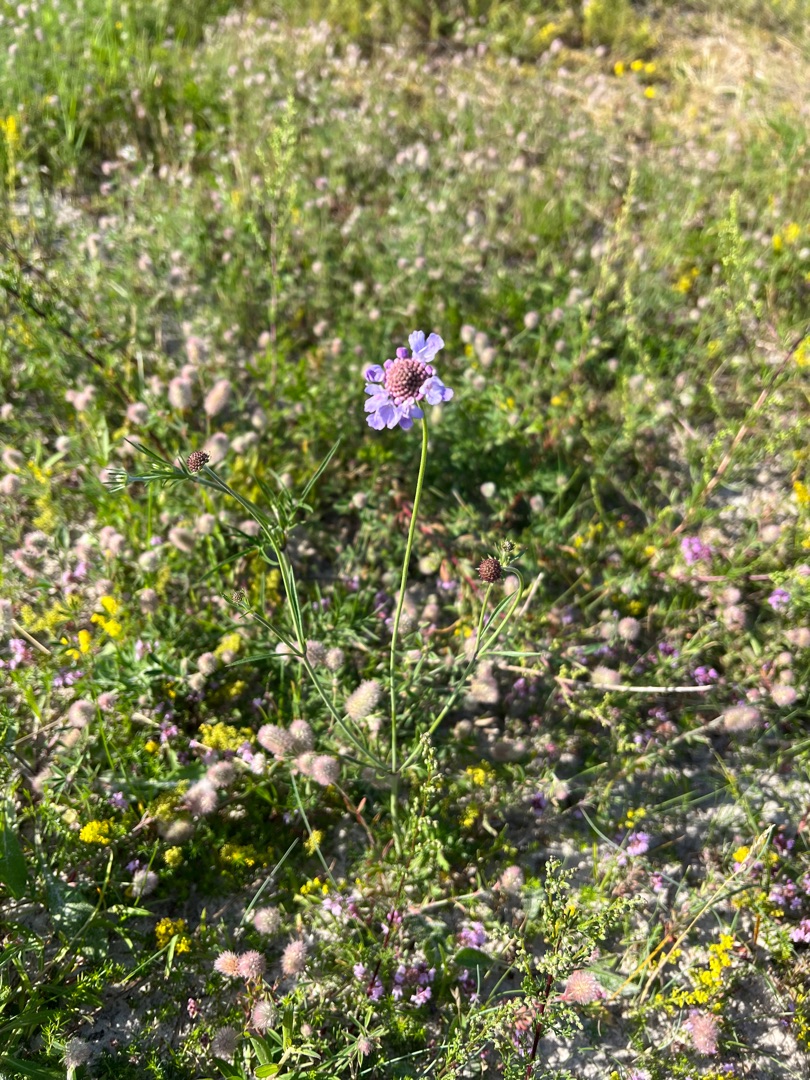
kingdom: Plantae
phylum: Tracheophyta
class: Magnoliopsida
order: Dipsacales
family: Caprifoliaceae
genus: Scabiosa
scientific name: Scabiosa columbaria
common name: Due-skabiose
